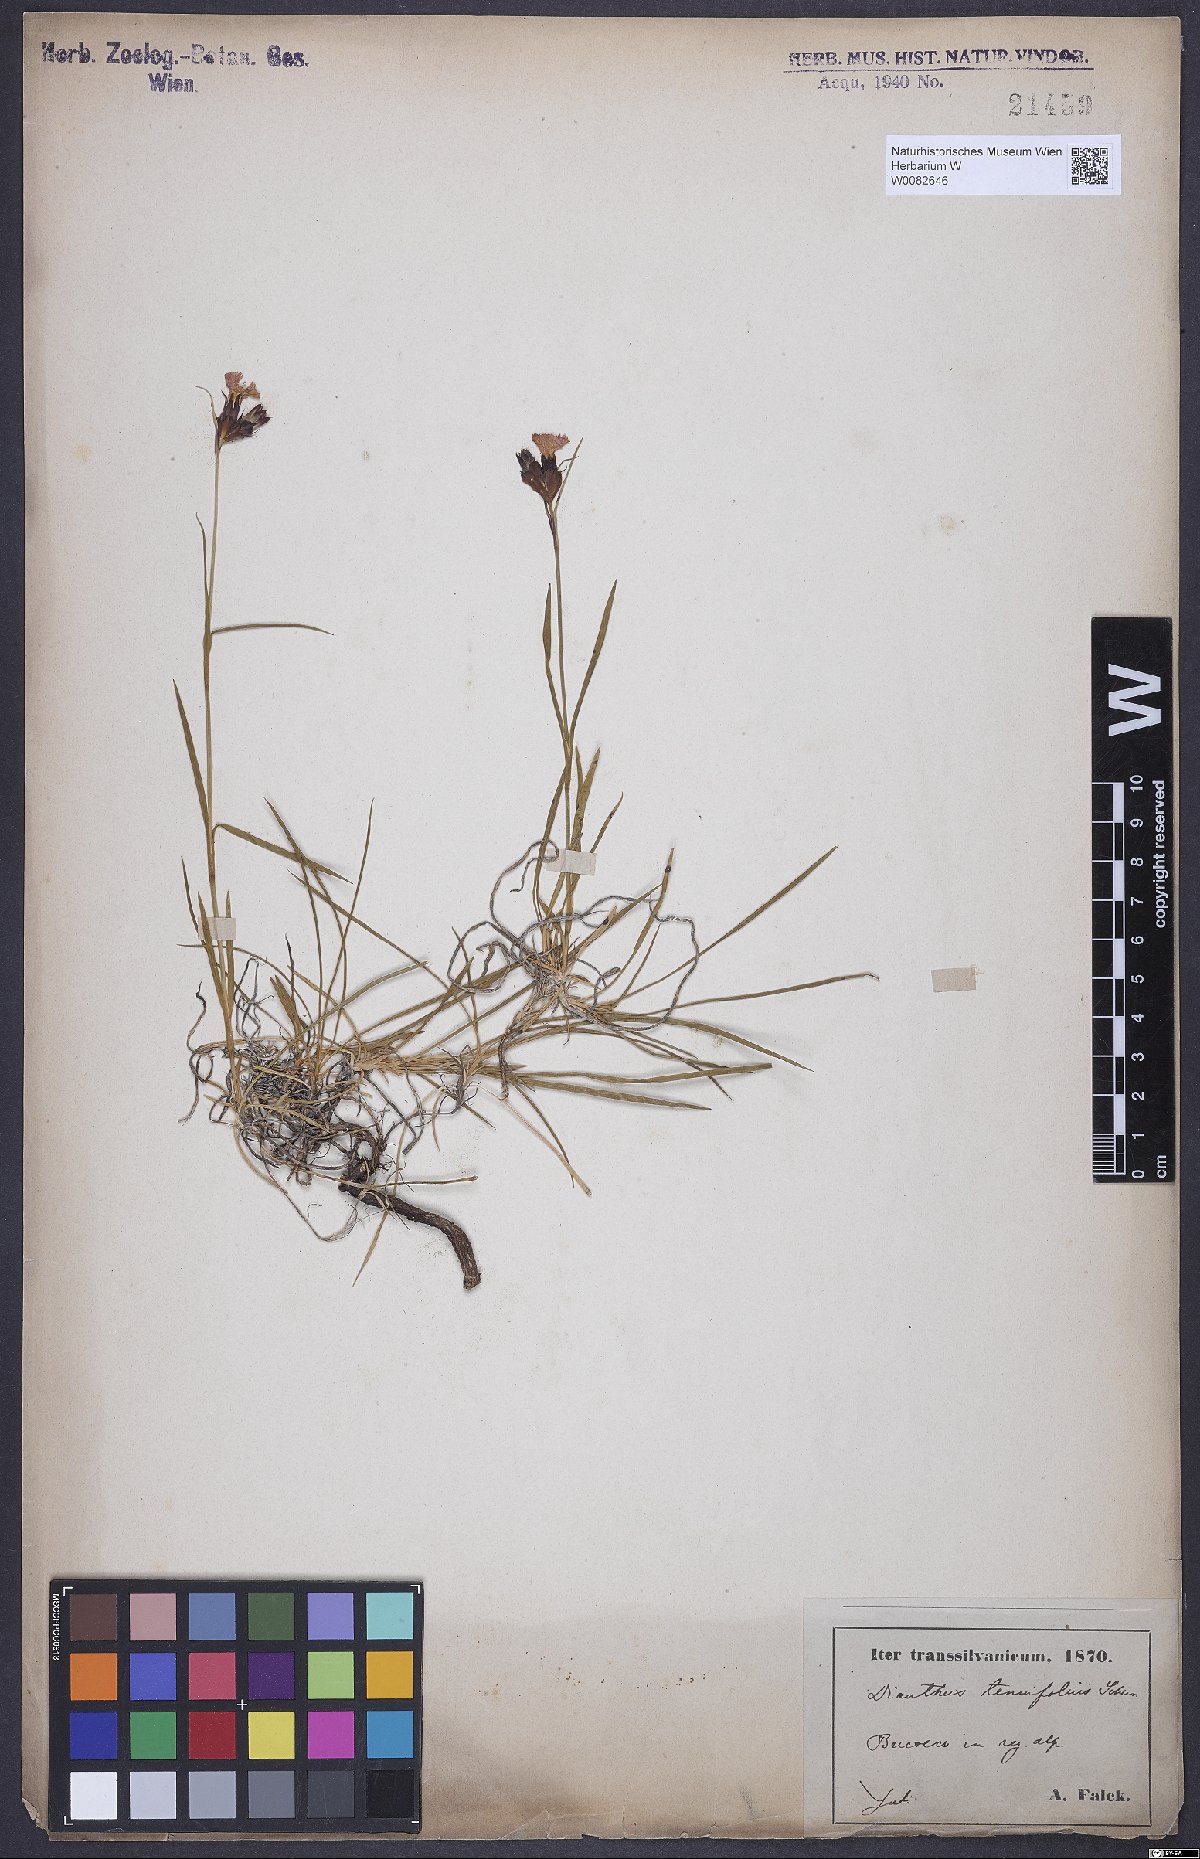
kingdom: Plantae
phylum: Tracheophyta
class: Magnoliopsida
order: Caryophyllales
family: Caryophyllaceae
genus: Dianthus
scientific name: Dianthus carthusianorum
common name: Carthusian pink
